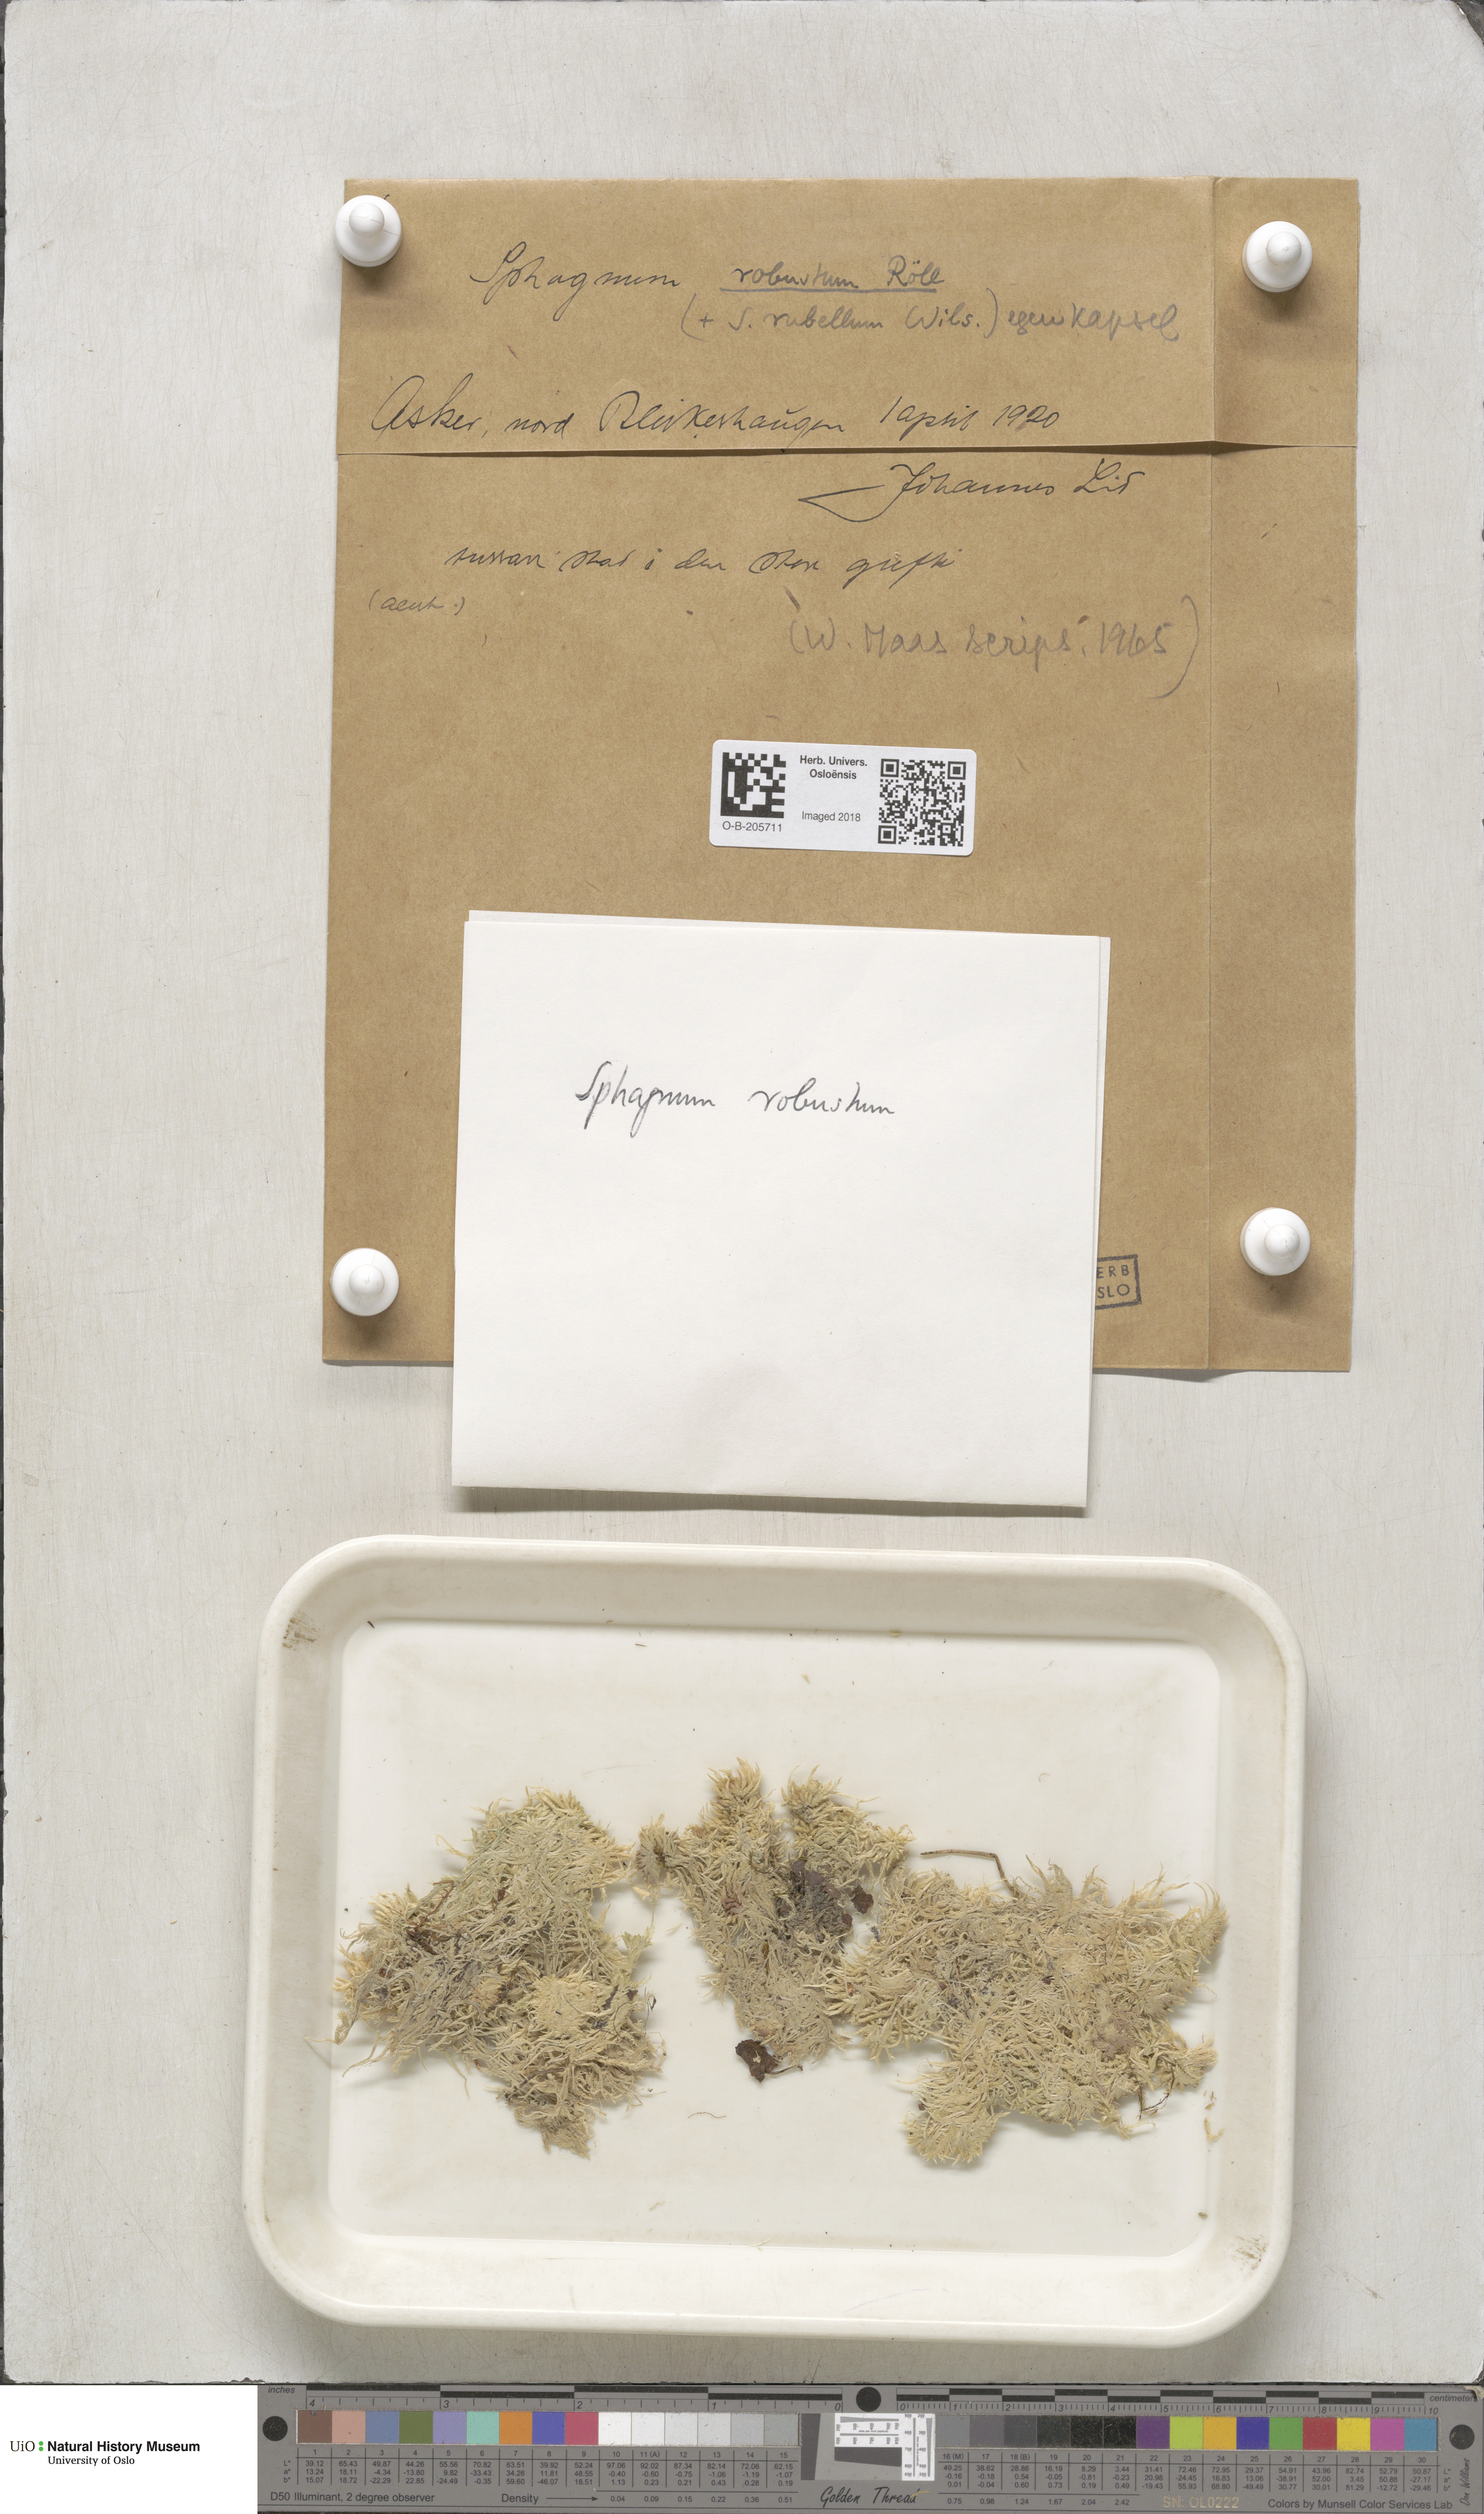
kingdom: Plantae
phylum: Bryophyta
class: Sphagnopsida
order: Sphagnales
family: Sphagnaceae
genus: Sphagnum
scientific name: Sphagnum russowii
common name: Russow's peat moss
